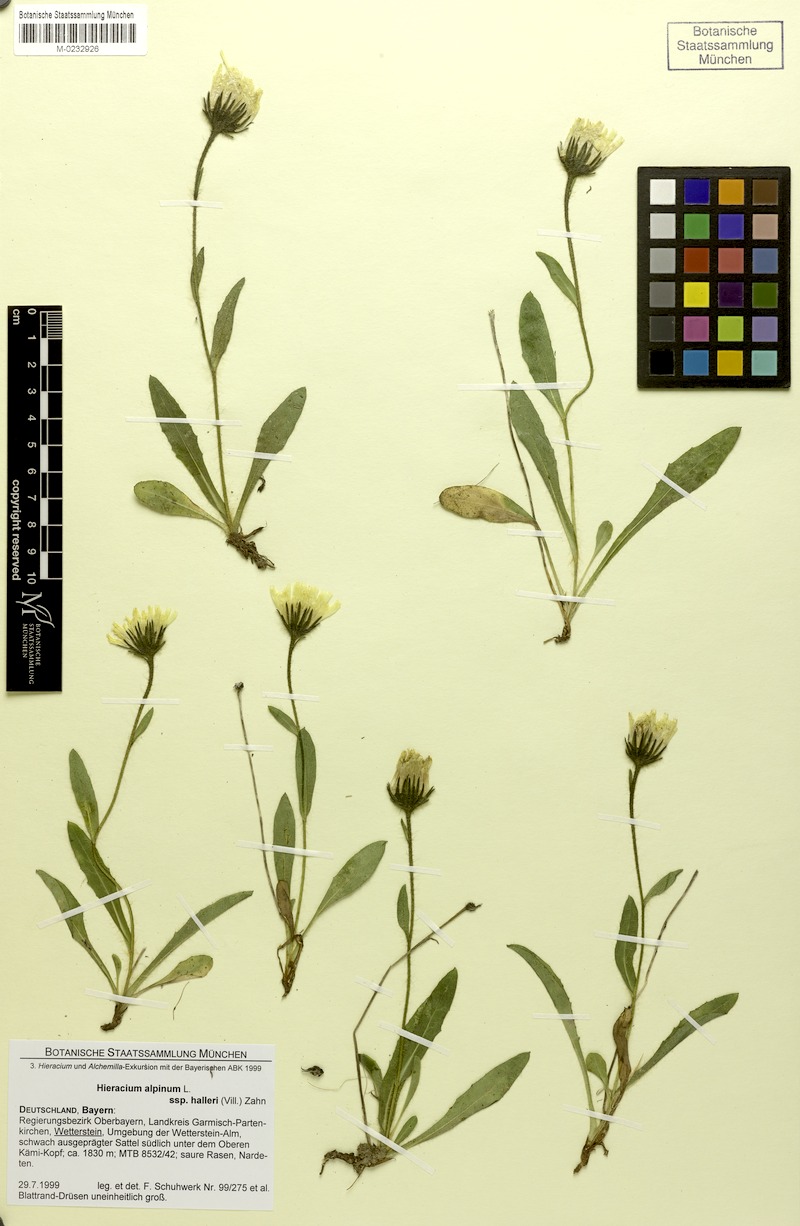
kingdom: Plantae
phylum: Tracheophyta
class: Magnoliopsida
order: Asterales
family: Asteraceae
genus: Hieracium
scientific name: Hieracium alpinum
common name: Alpine hawkweed
